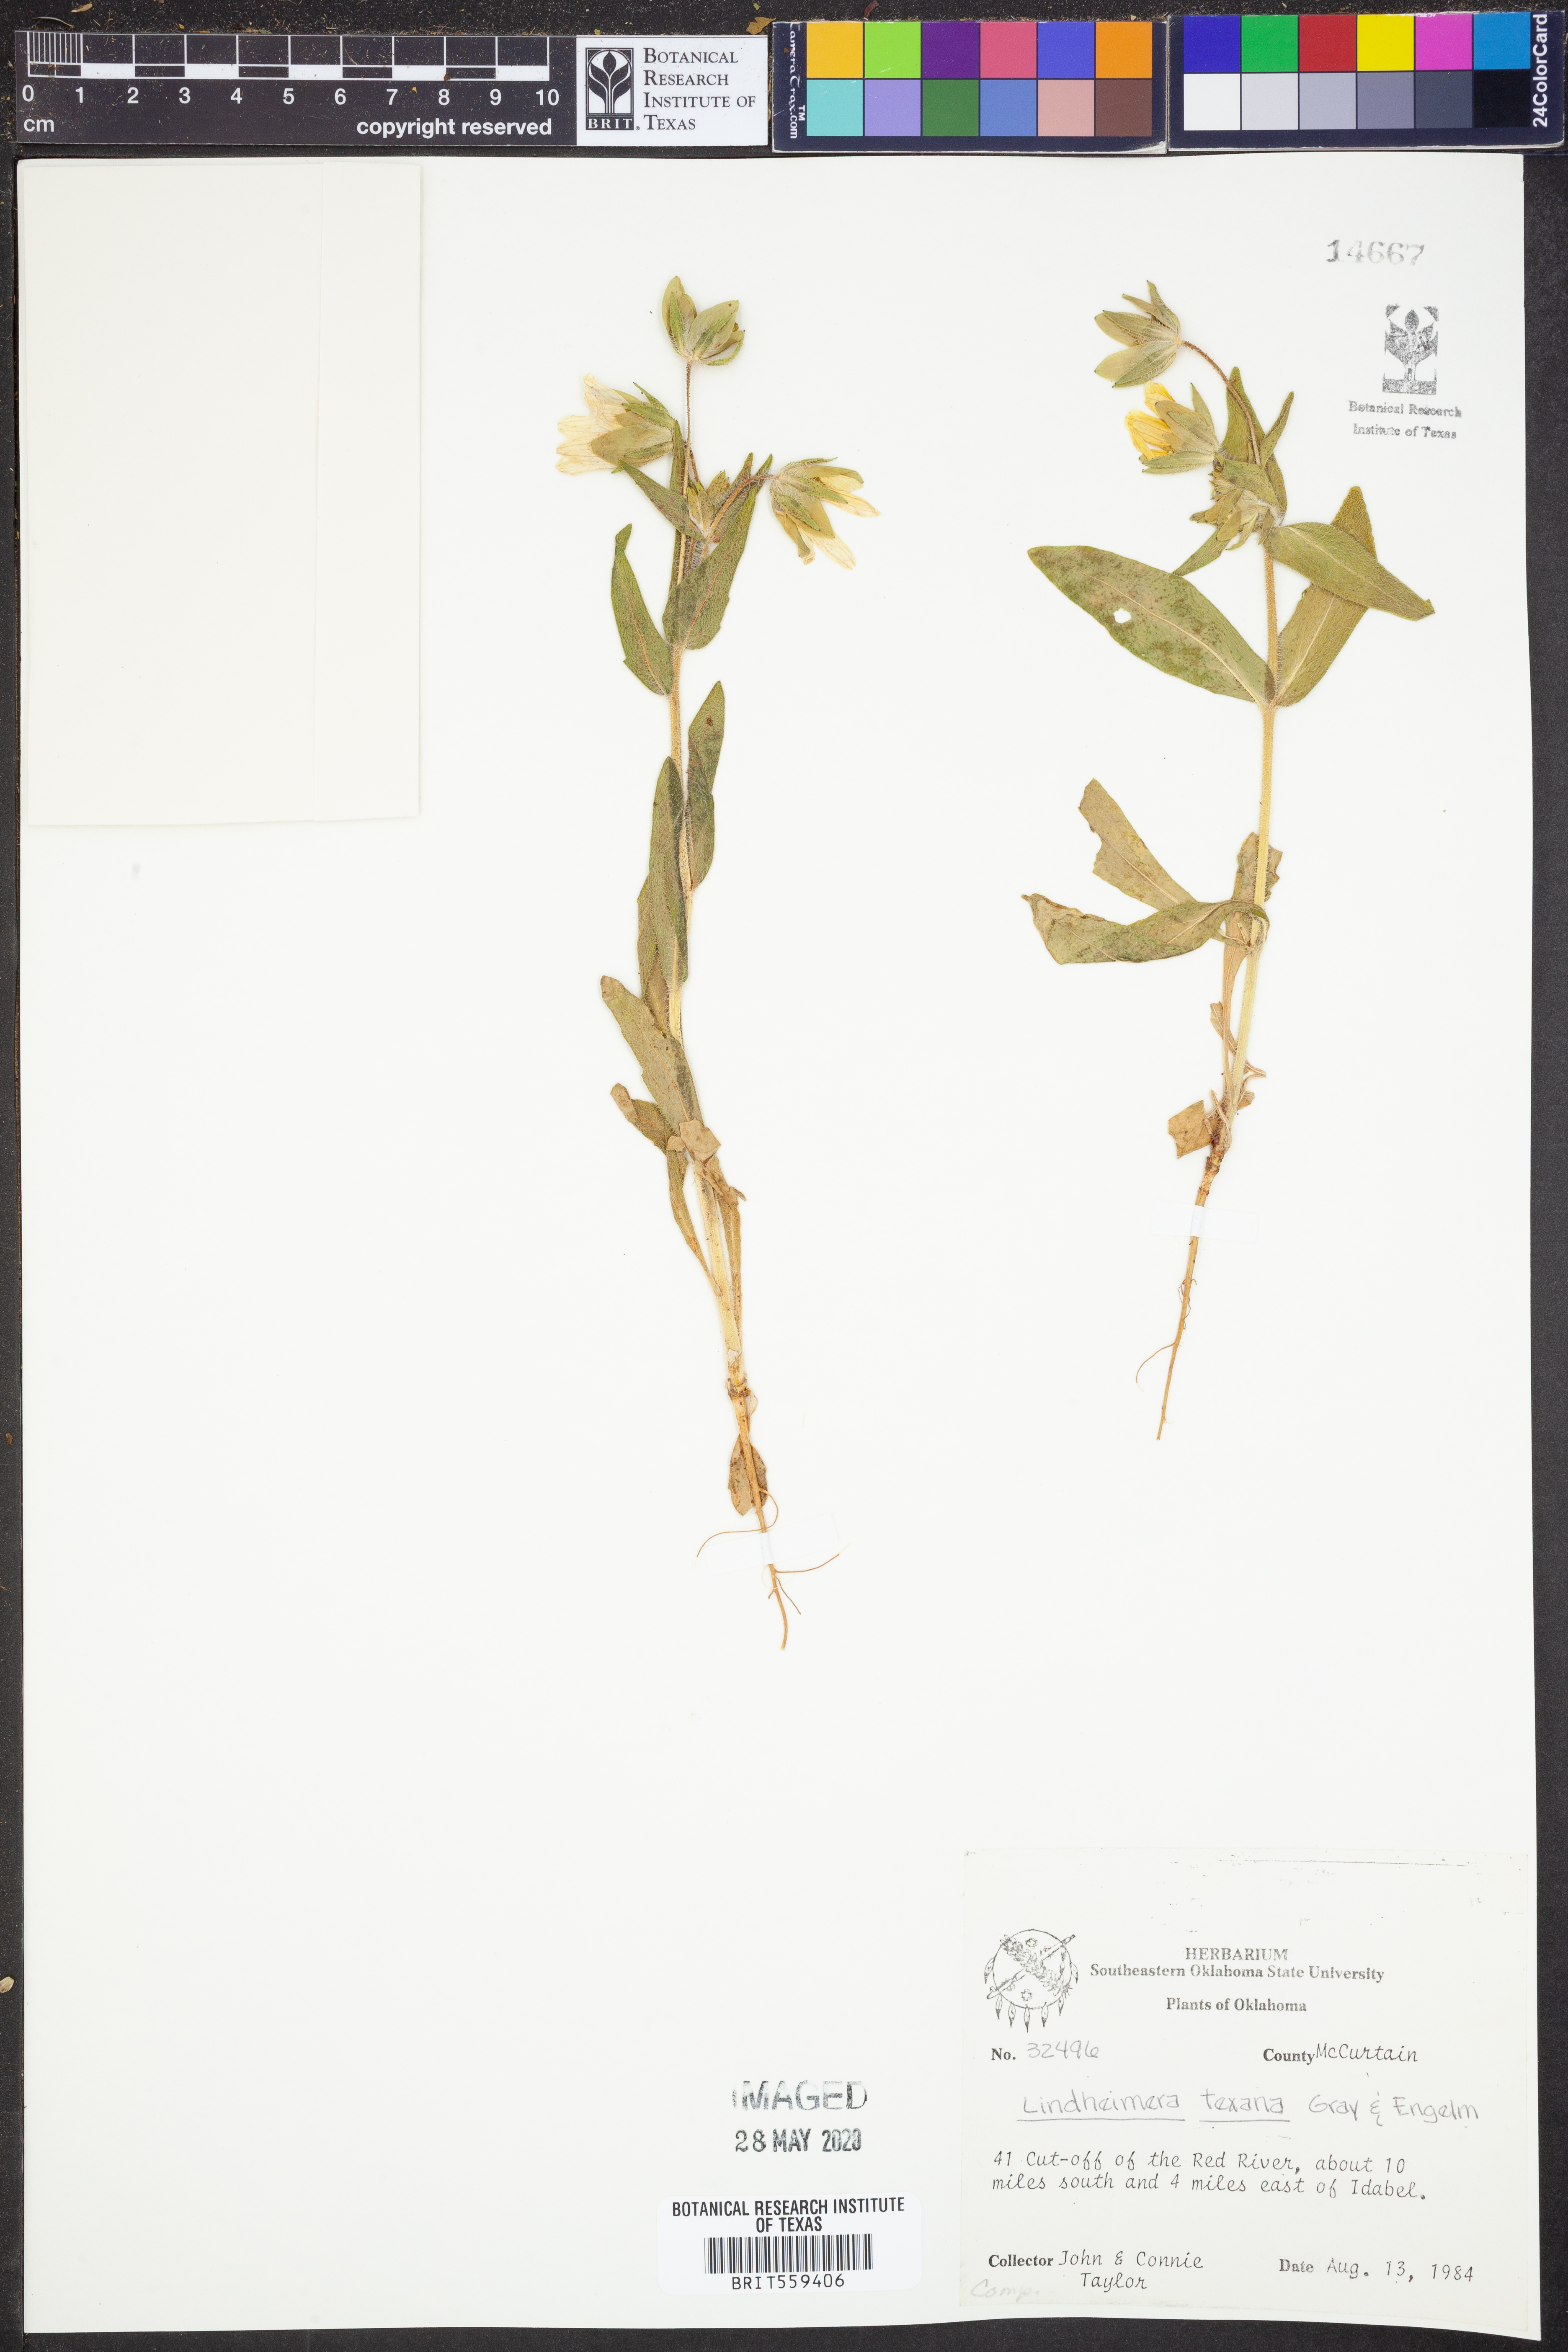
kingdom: Plantae
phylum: Tracheophyta
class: Magnoliopsida
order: Asterales
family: Asteraceae
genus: Lindheimera
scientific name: Lindheimera texana
